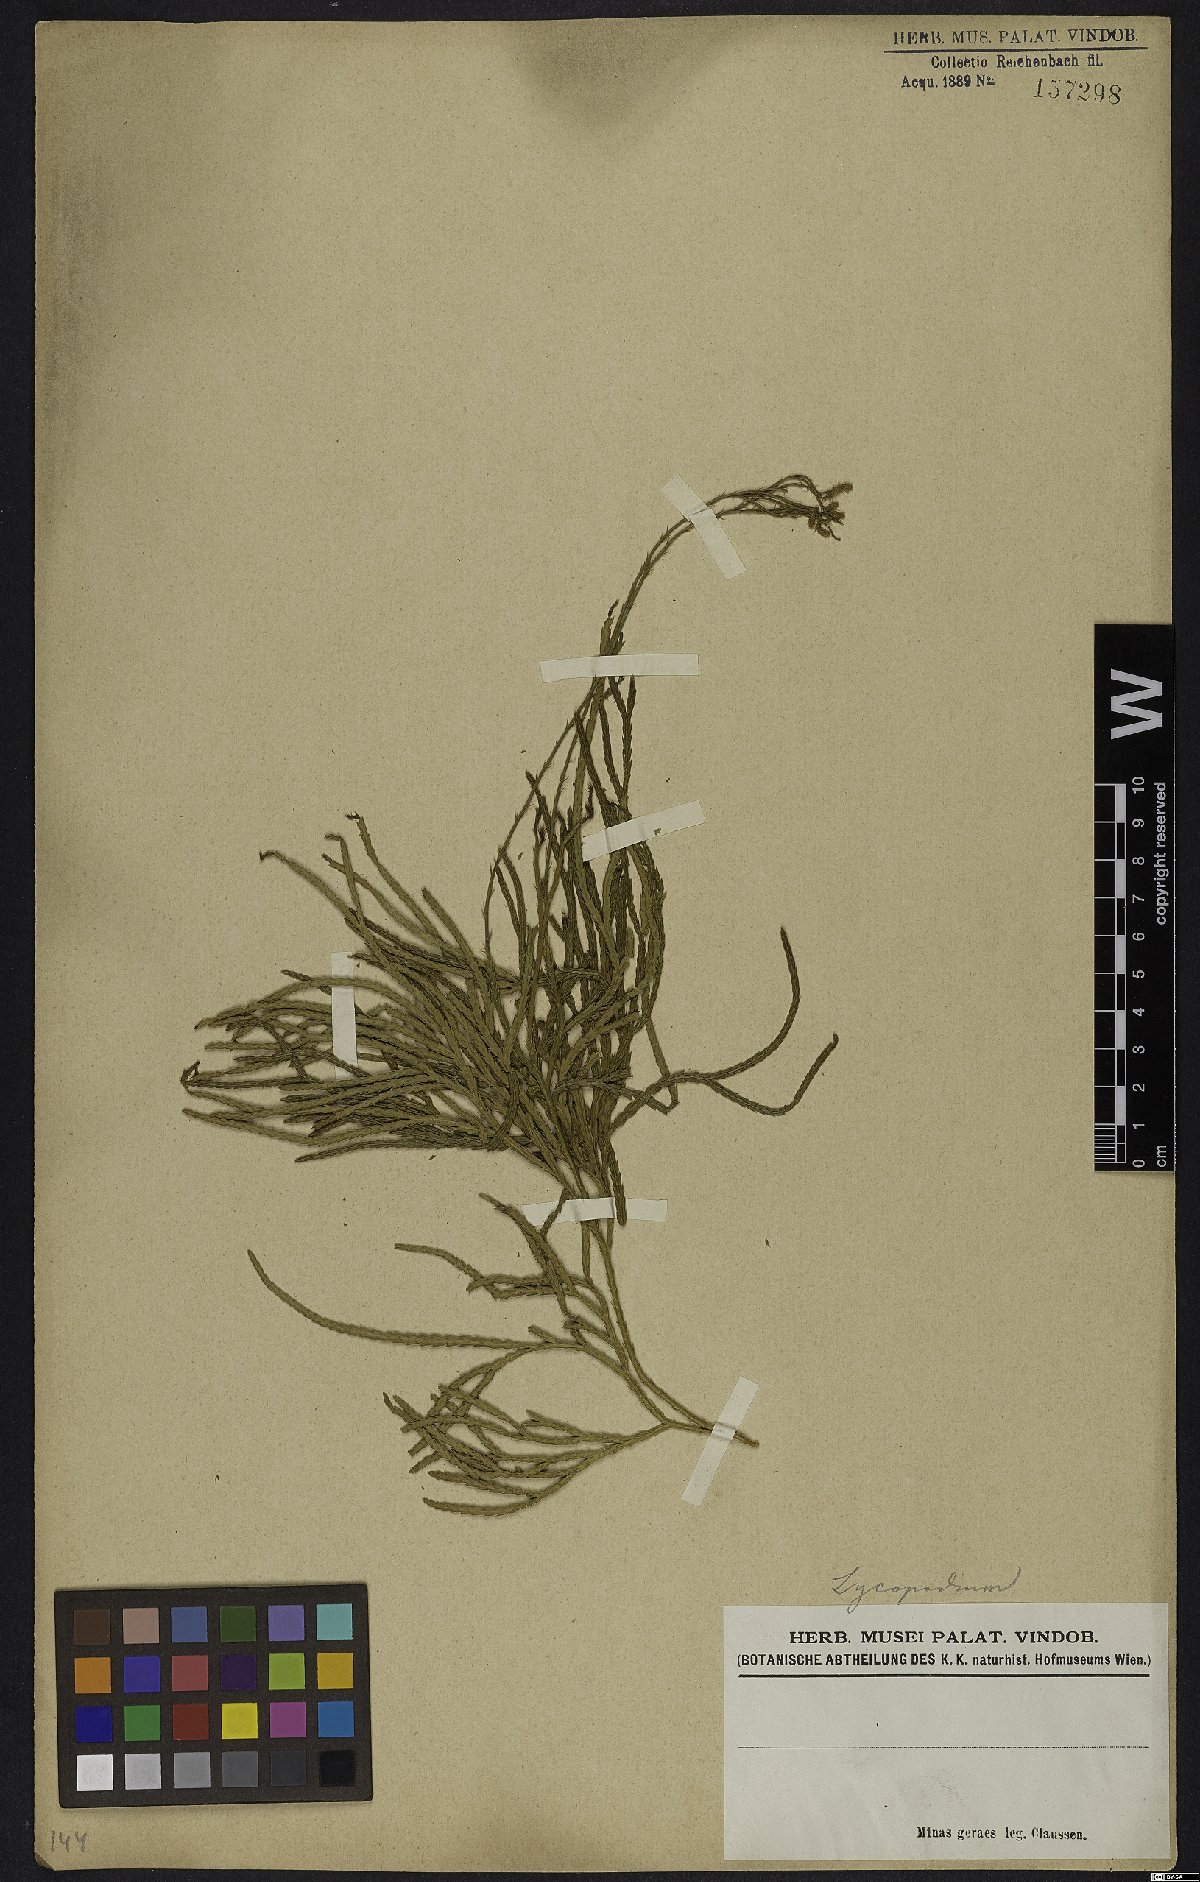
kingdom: Plantae
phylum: Tracheophyta
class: Lycopodiopsida
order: Lycopodiales
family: Lycopodiaceae
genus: Lycopodium
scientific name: Lycopodium
